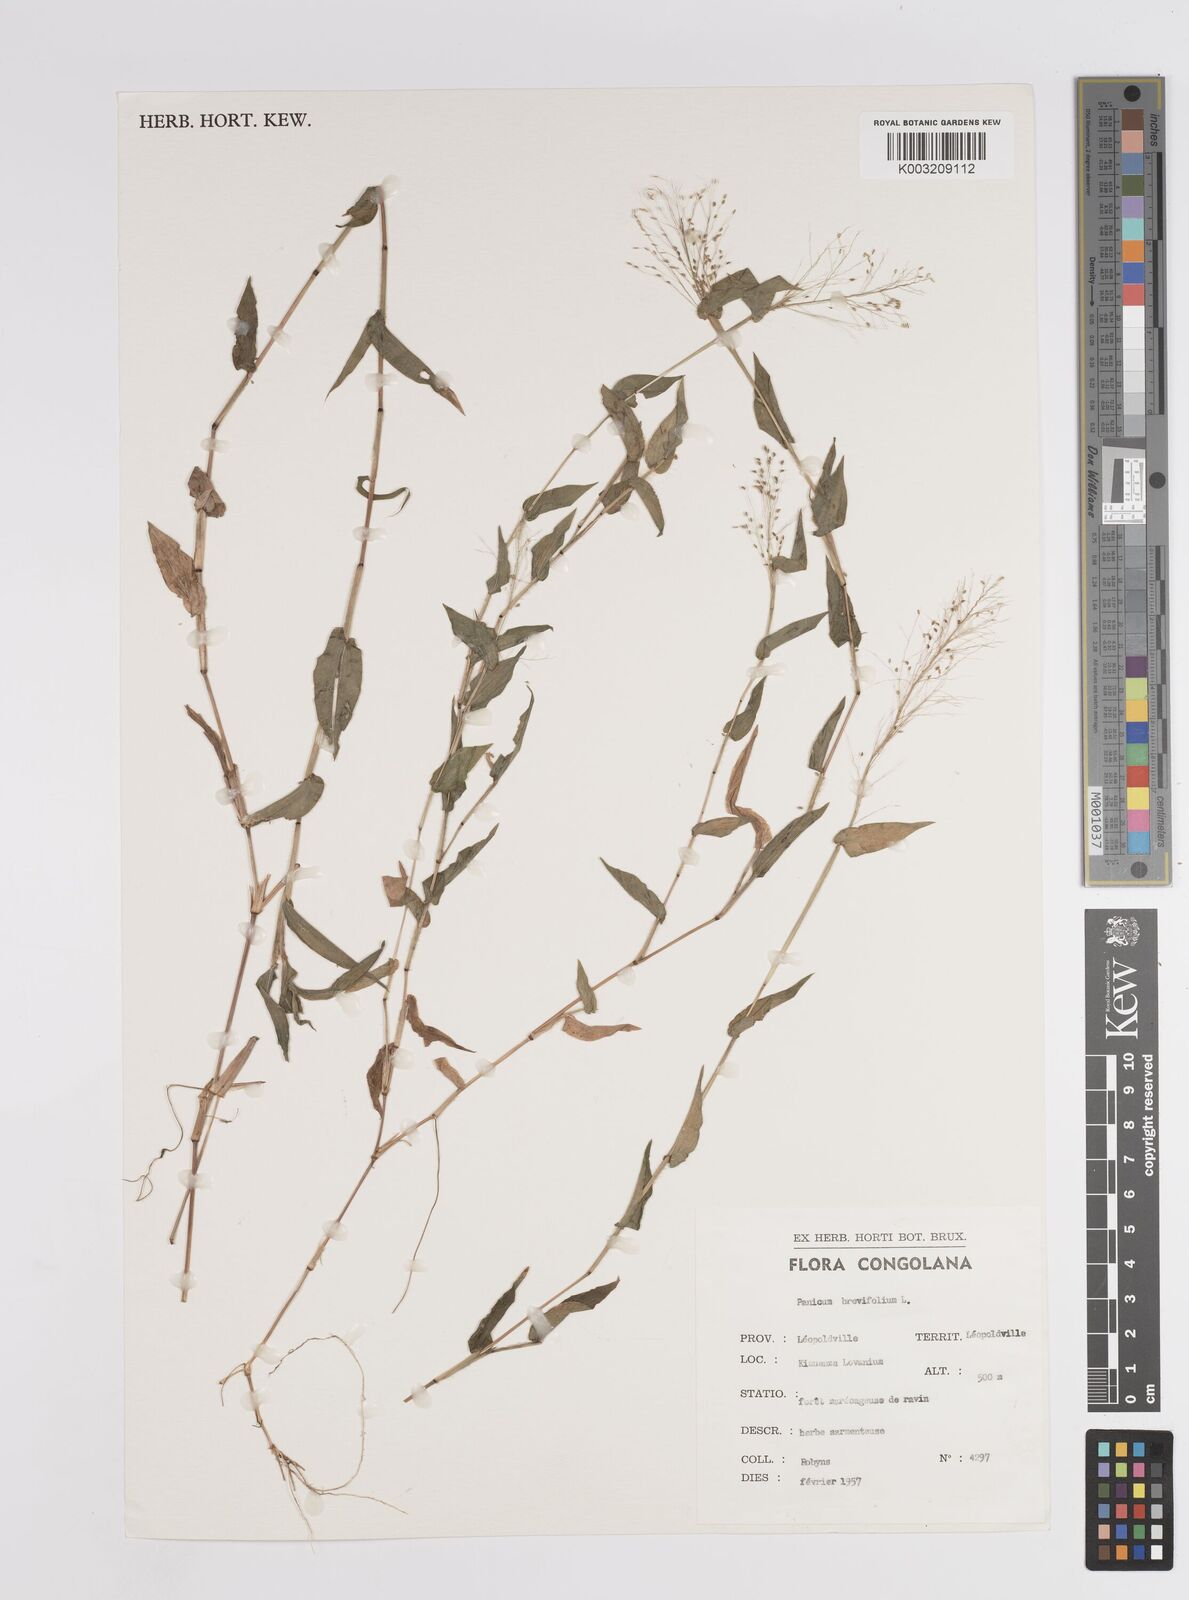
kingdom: Plantae
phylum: Tracheophyta
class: Liliopsida
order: Poales
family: Poaceae
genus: Panicum
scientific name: Panicum brevifolium
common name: Shortleaf panic grass
